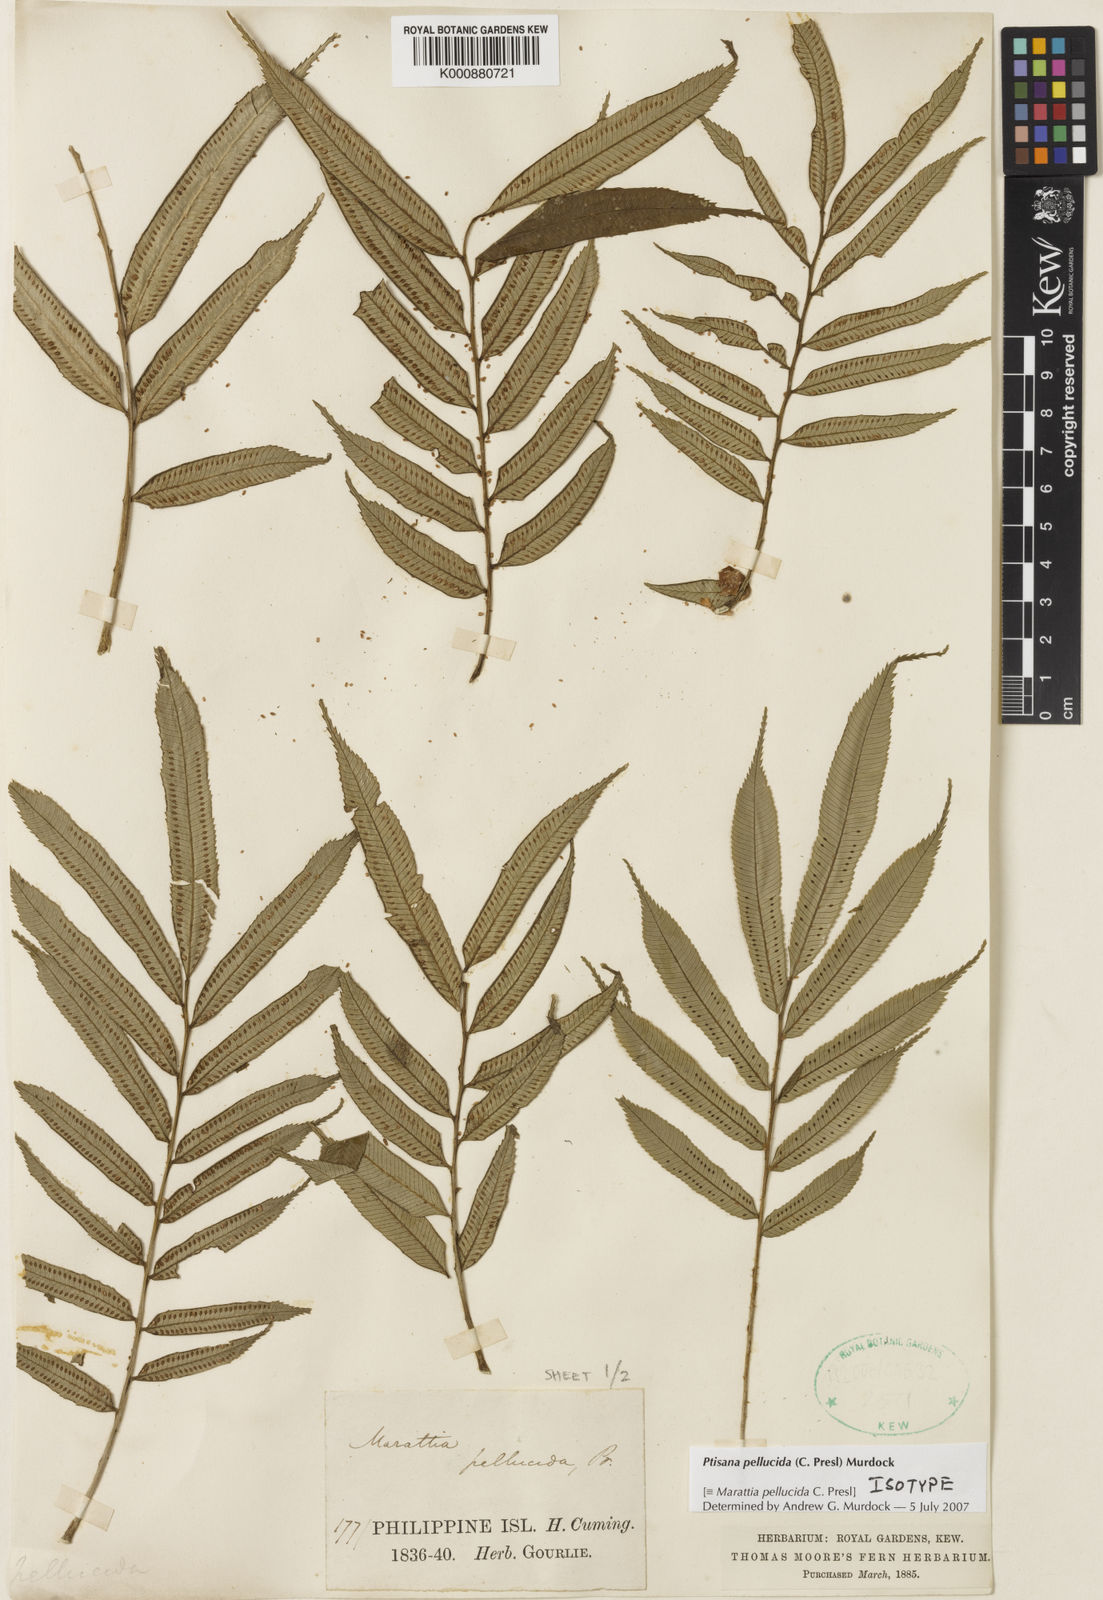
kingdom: Plantae
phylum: Tracheophyta
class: Polypodiopsida
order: Marattiales
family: Marattiaceae
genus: Ptisana
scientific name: Ptisana pellucida
